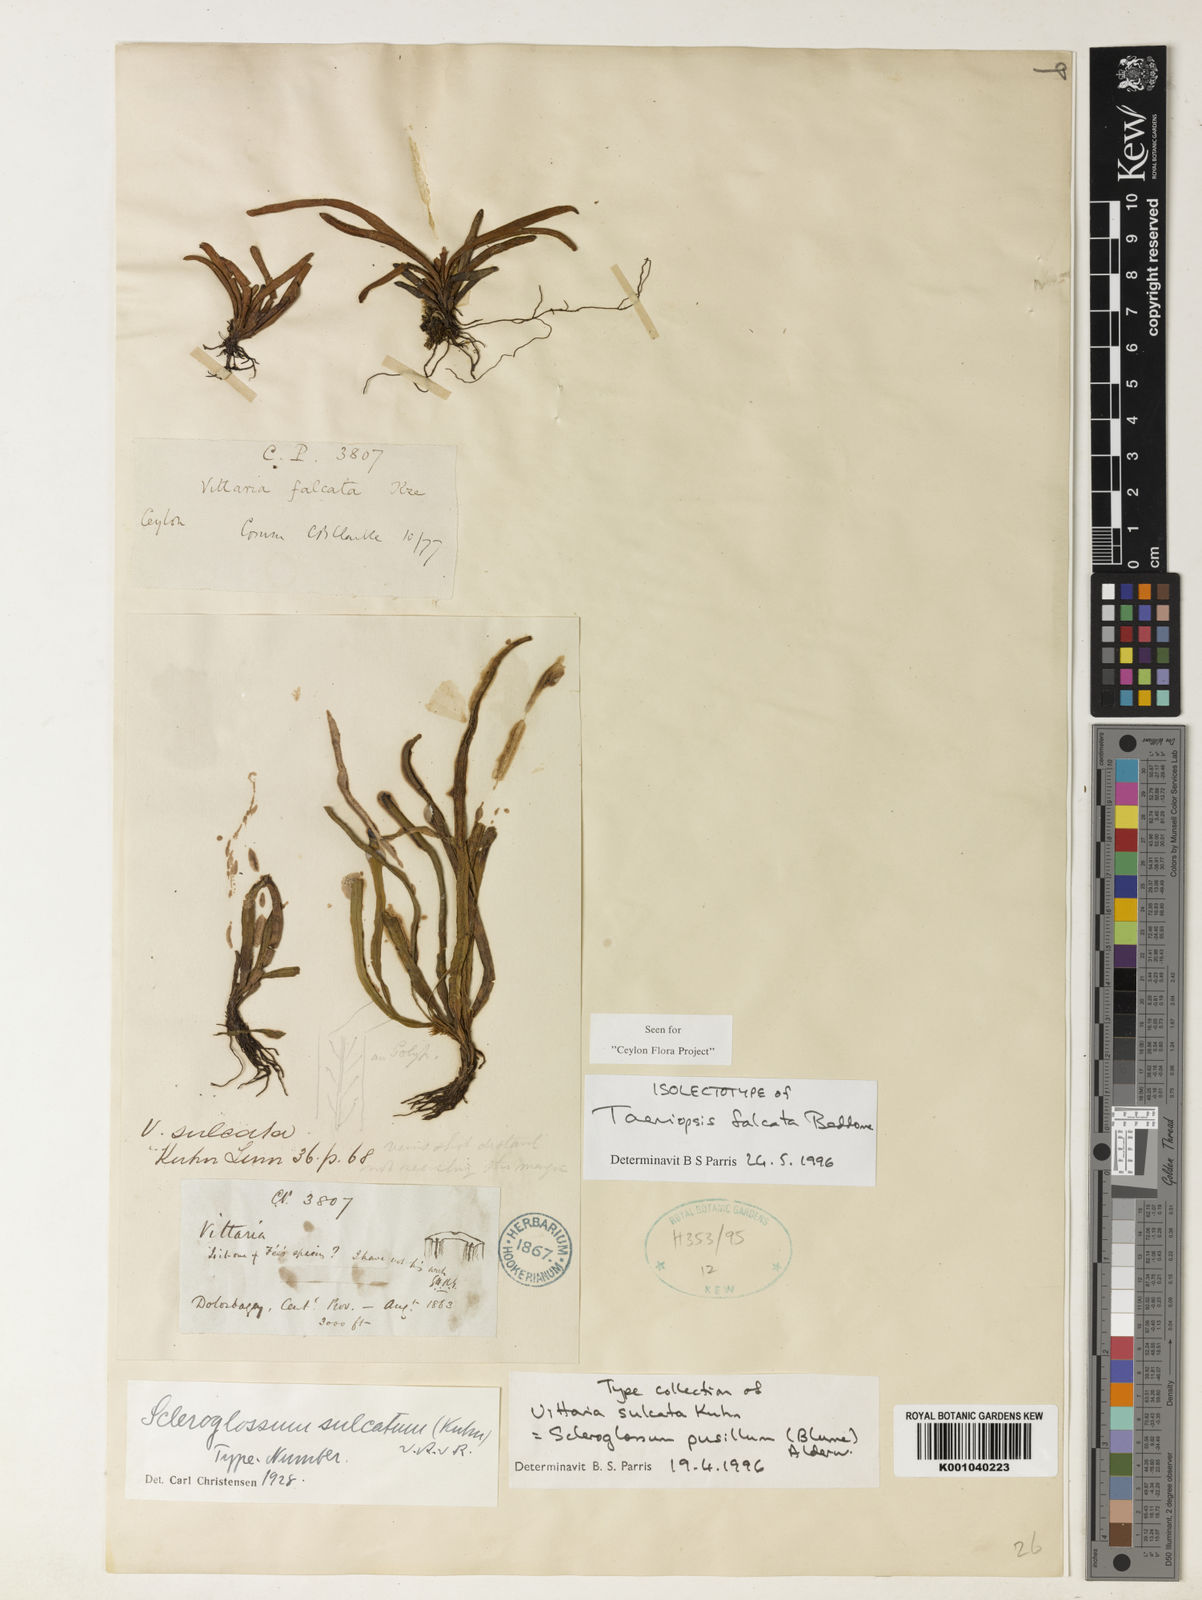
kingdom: Plantae
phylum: Tracheophyta
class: Polypodiopsida
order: Polypodiales
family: Polypodiaceae
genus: Scleroglossum
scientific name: Scleroglossum sulcatum
